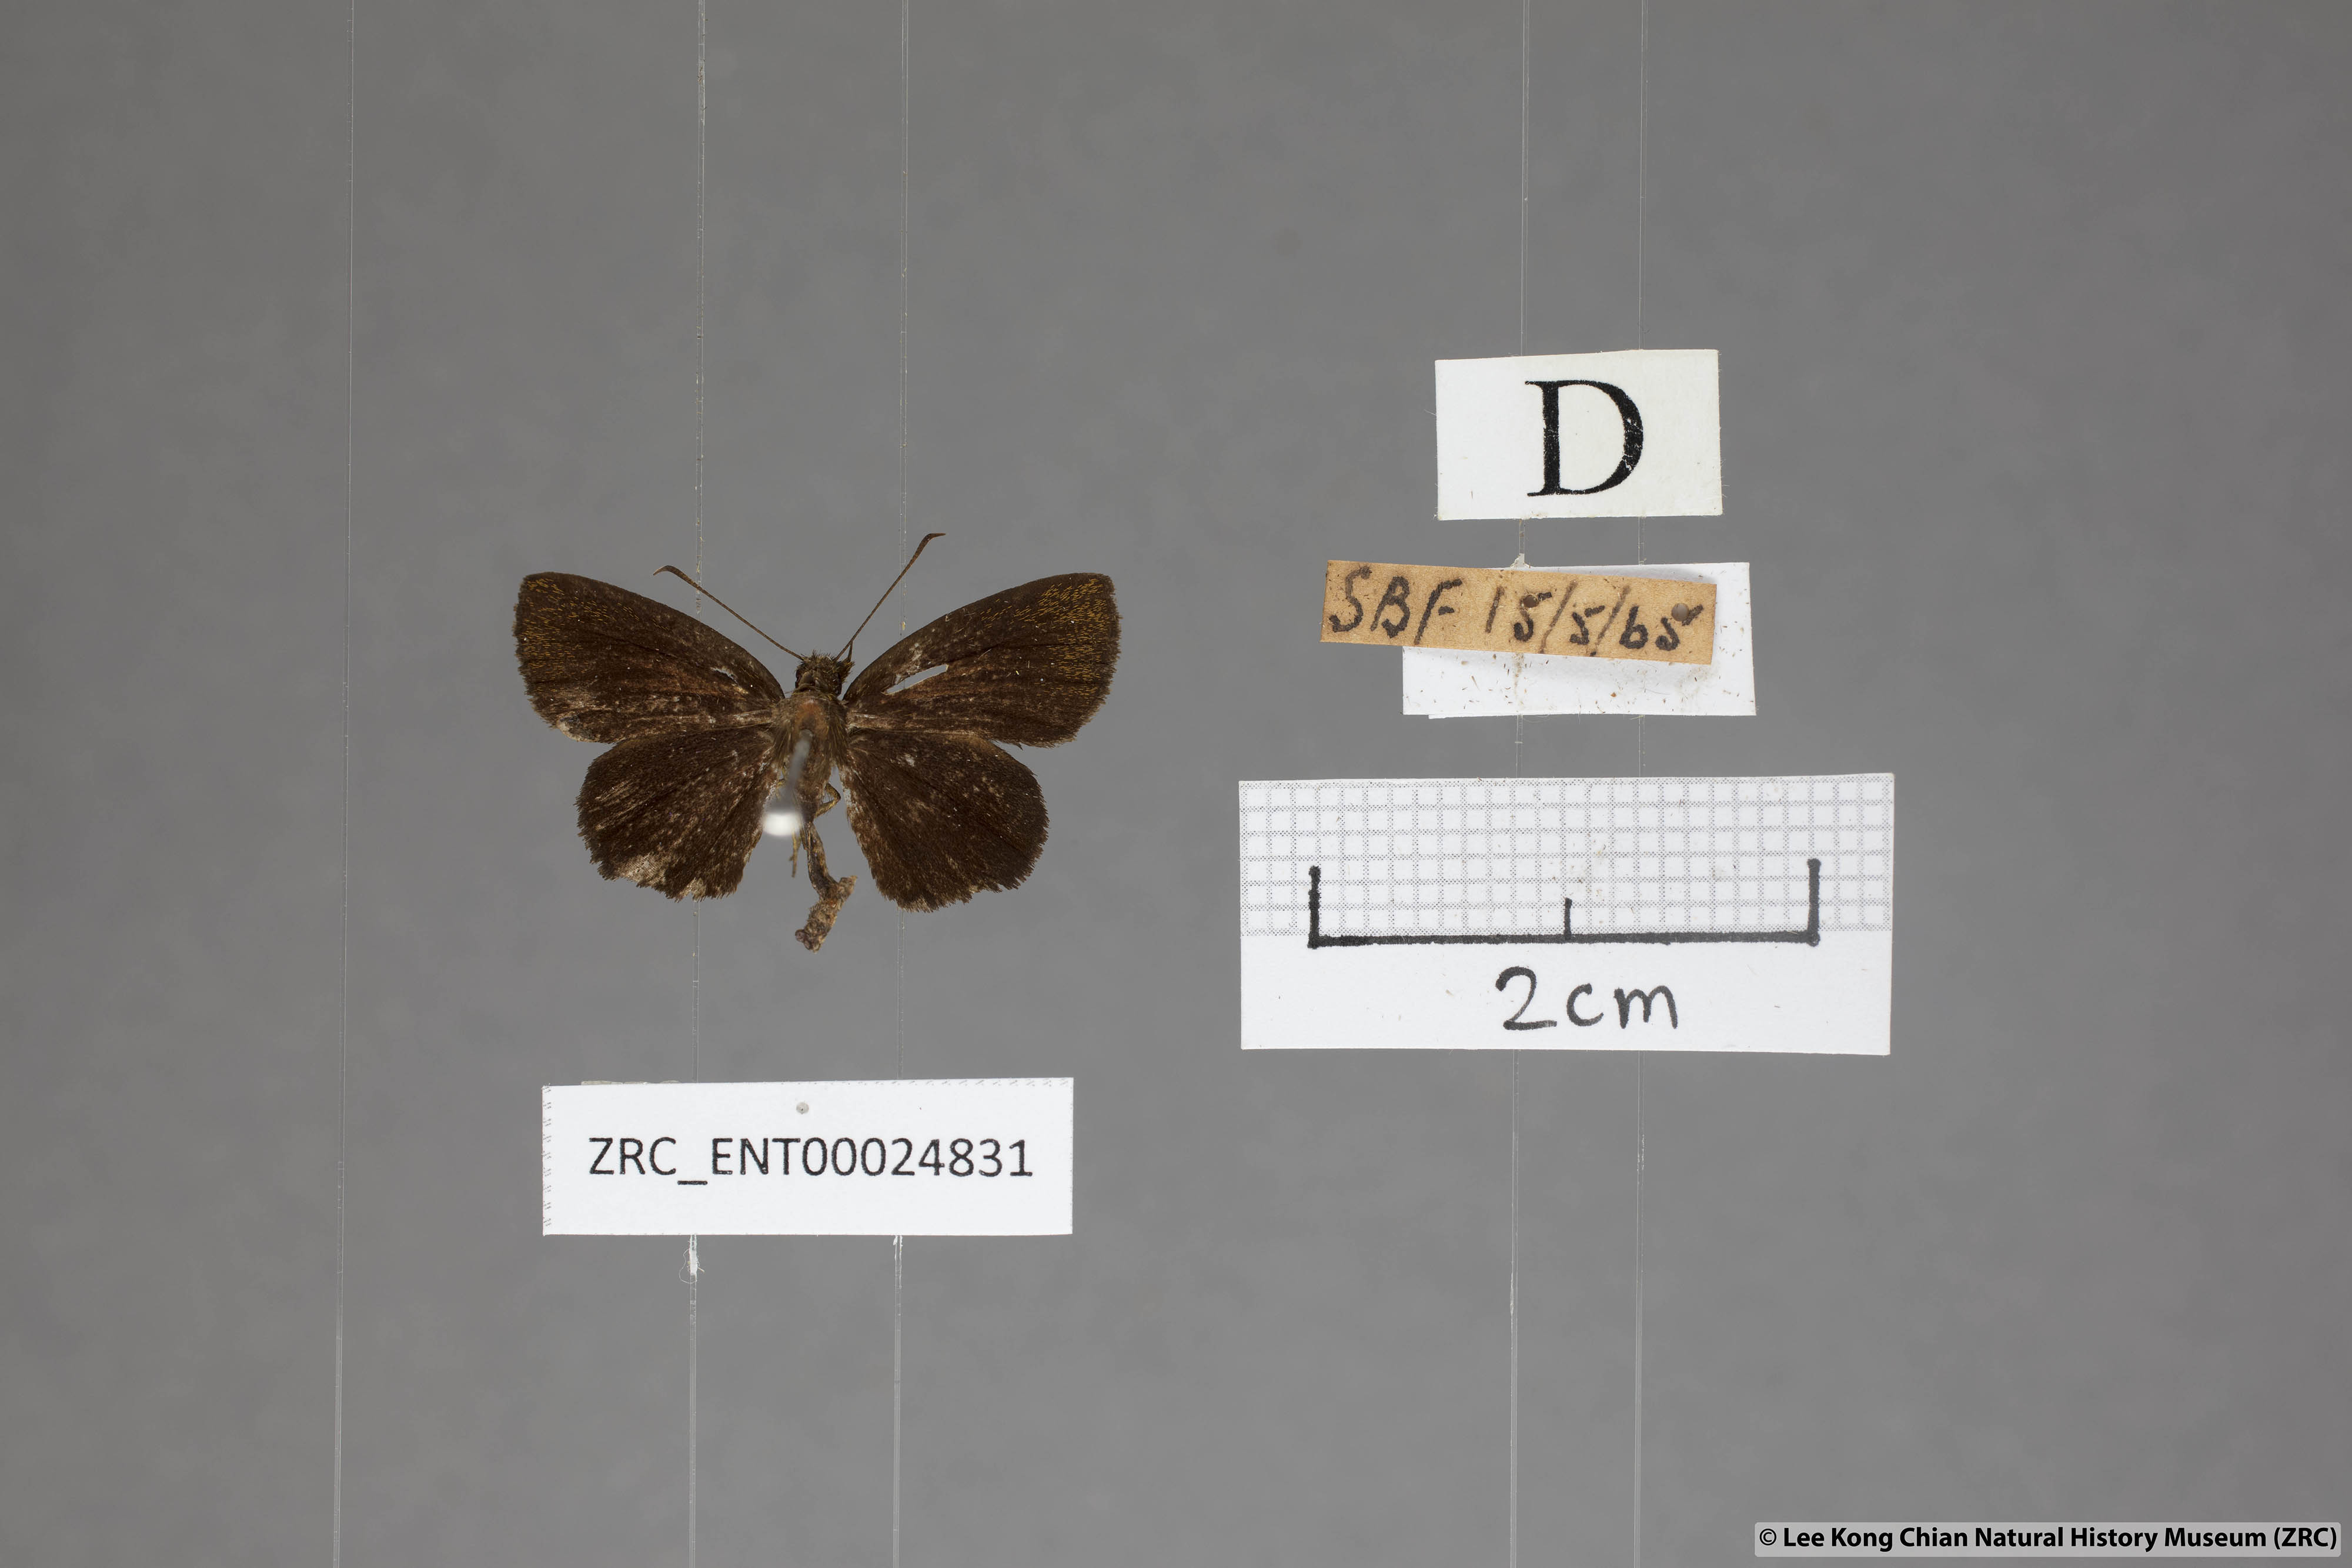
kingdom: Animalia
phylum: Arthropoda
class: Insecta
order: Lepidoptera
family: Hesperiidae
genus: Iambrix
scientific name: Iambrix stellifer
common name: Starry bob
